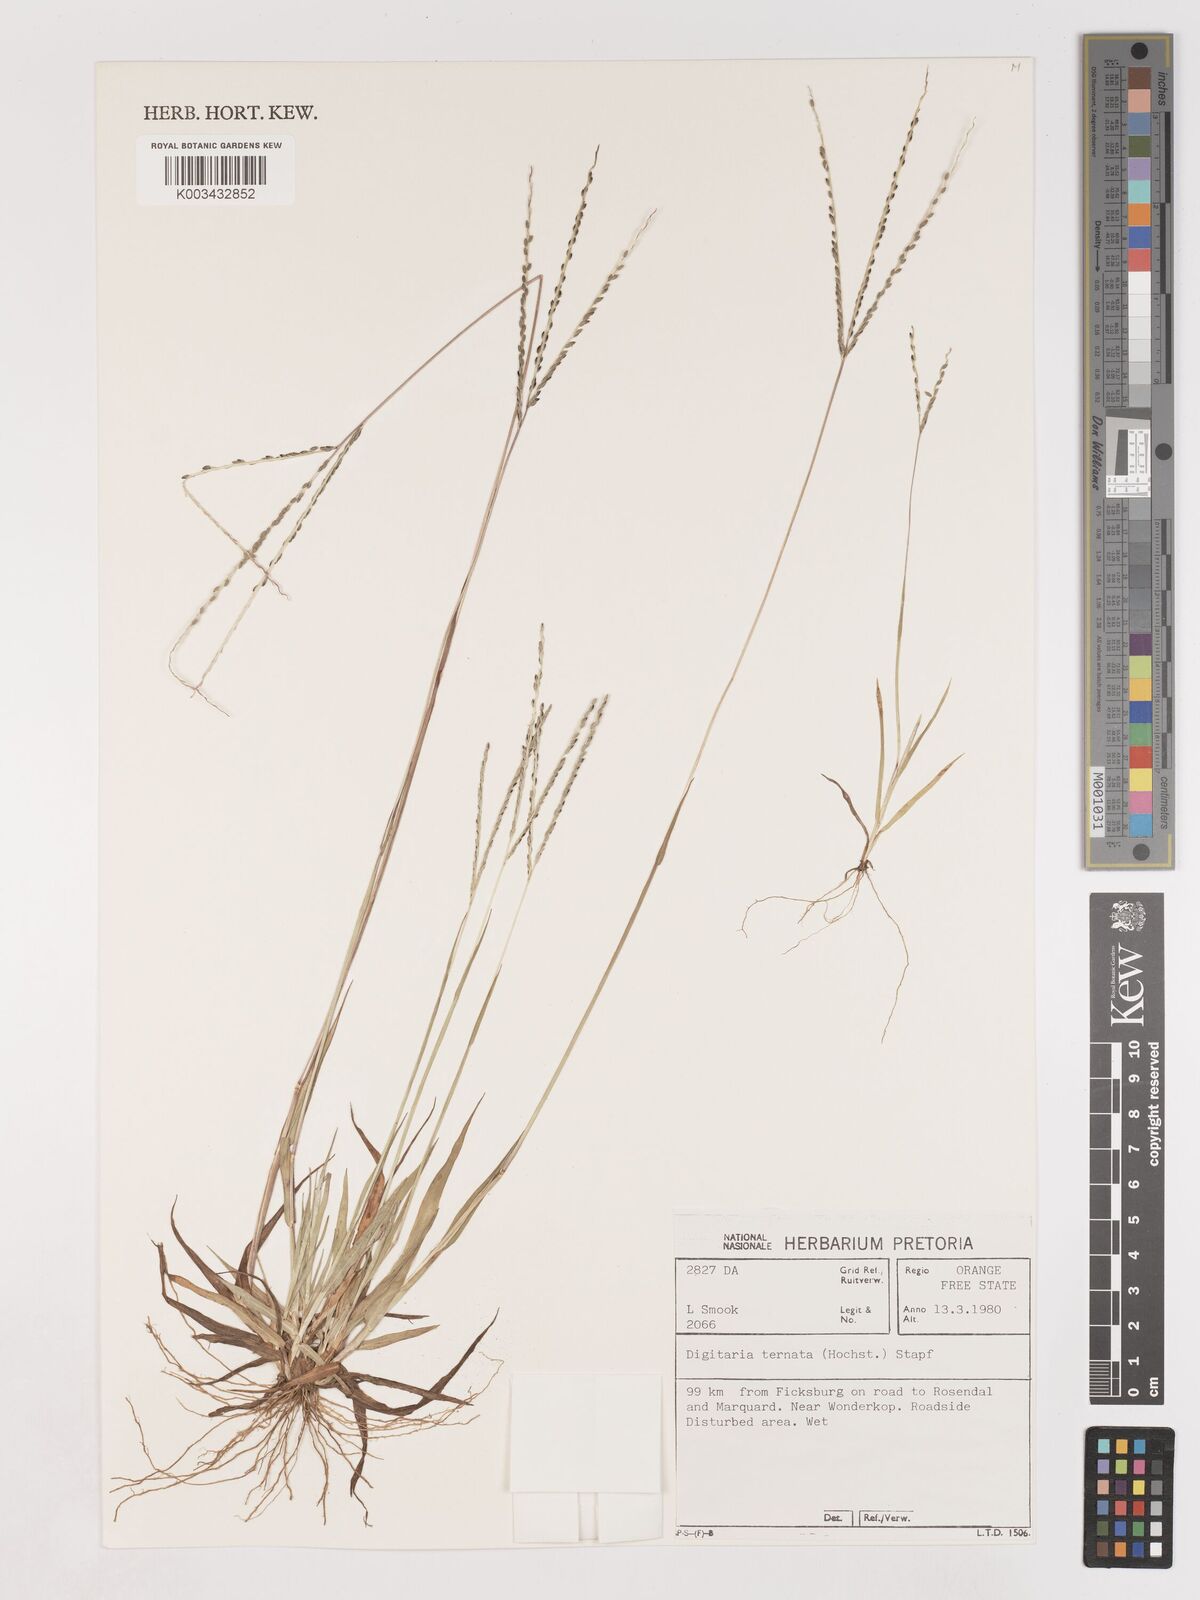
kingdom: Plantae
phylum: Tracheophyta
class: Liliopsida
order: Poales
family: Poaceae
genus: Digitaria
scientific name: Digitaria ternata
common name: Blackseed crabgrass
